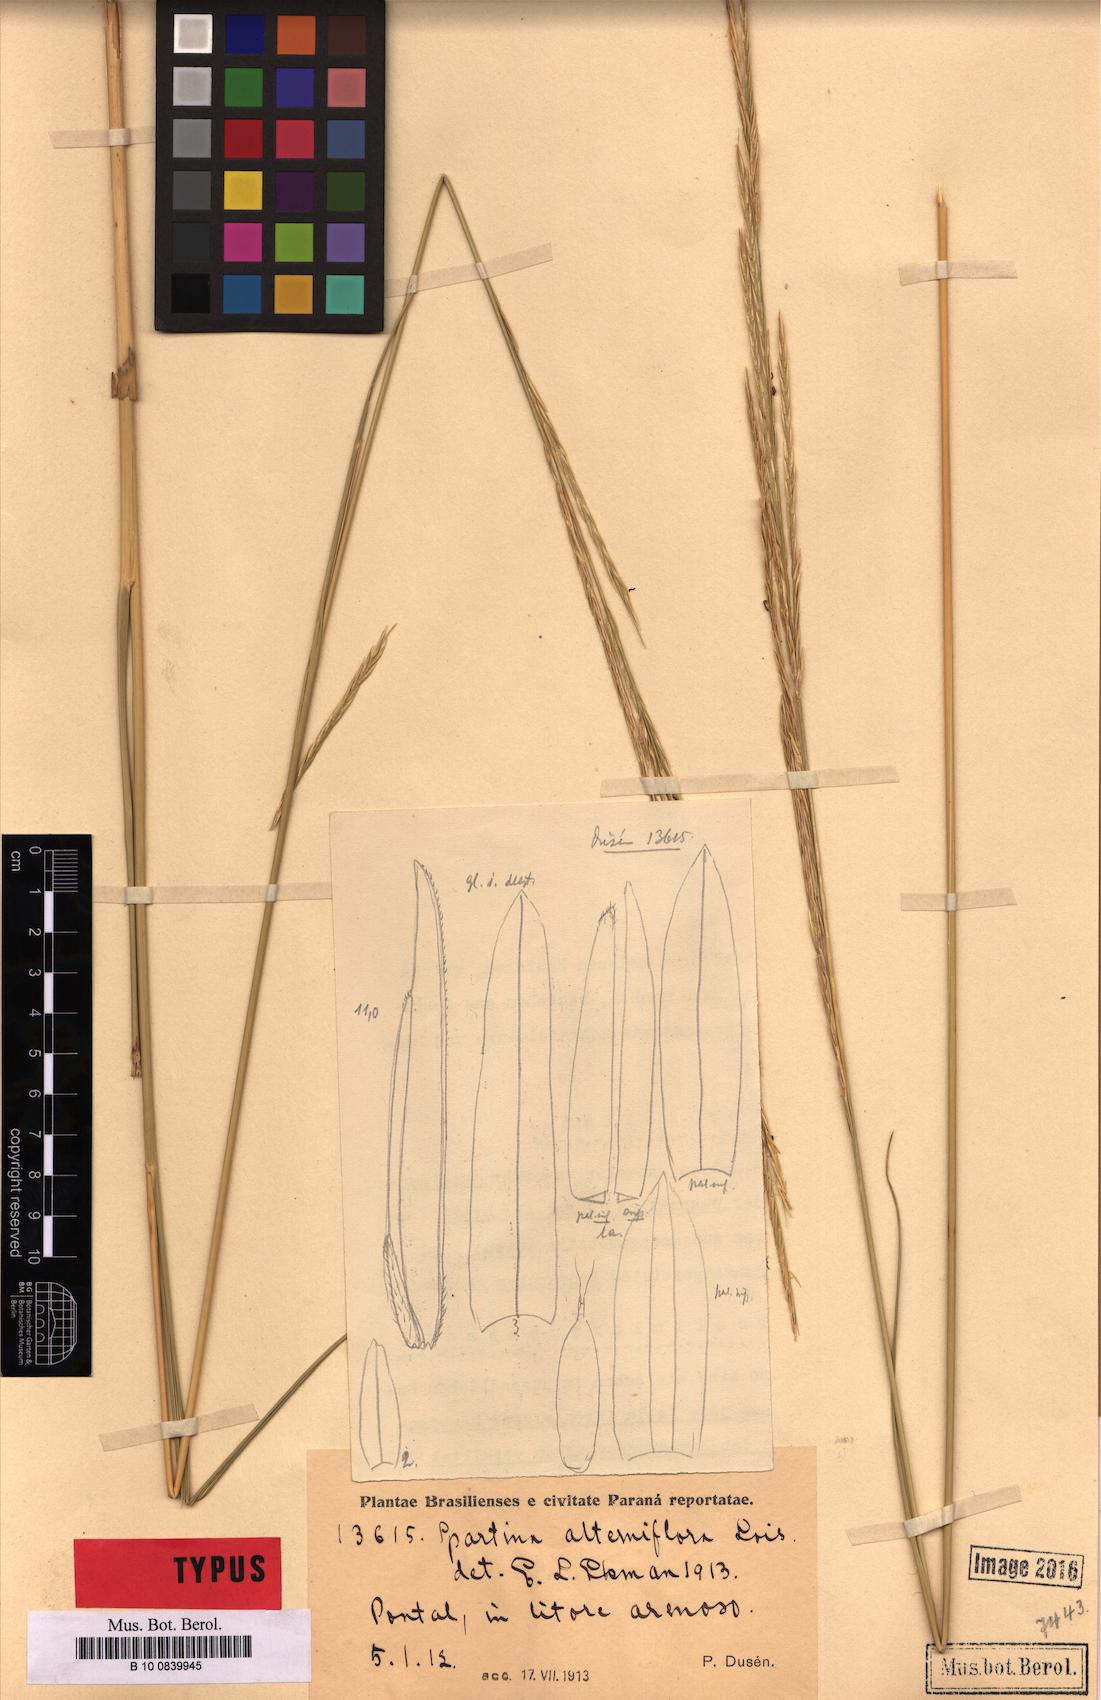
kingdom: Plantae
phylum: Tracheophyta
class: Liliopsida
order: Poales
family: Poaceae
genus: Sporobolus
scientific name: Sporobolus alterniflorus
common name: Atlantic cordgrass
